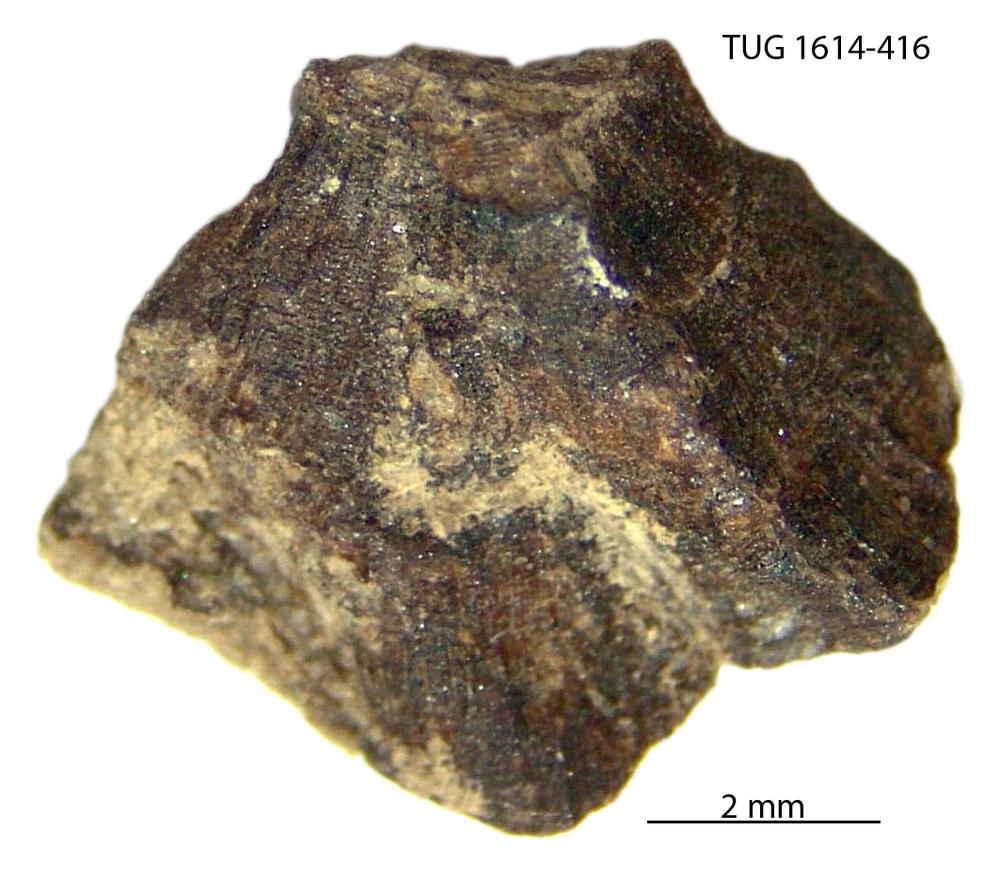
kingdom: Animalia
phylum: Mollusca
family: Scenellidae
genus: Scenella
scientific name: Scenella
